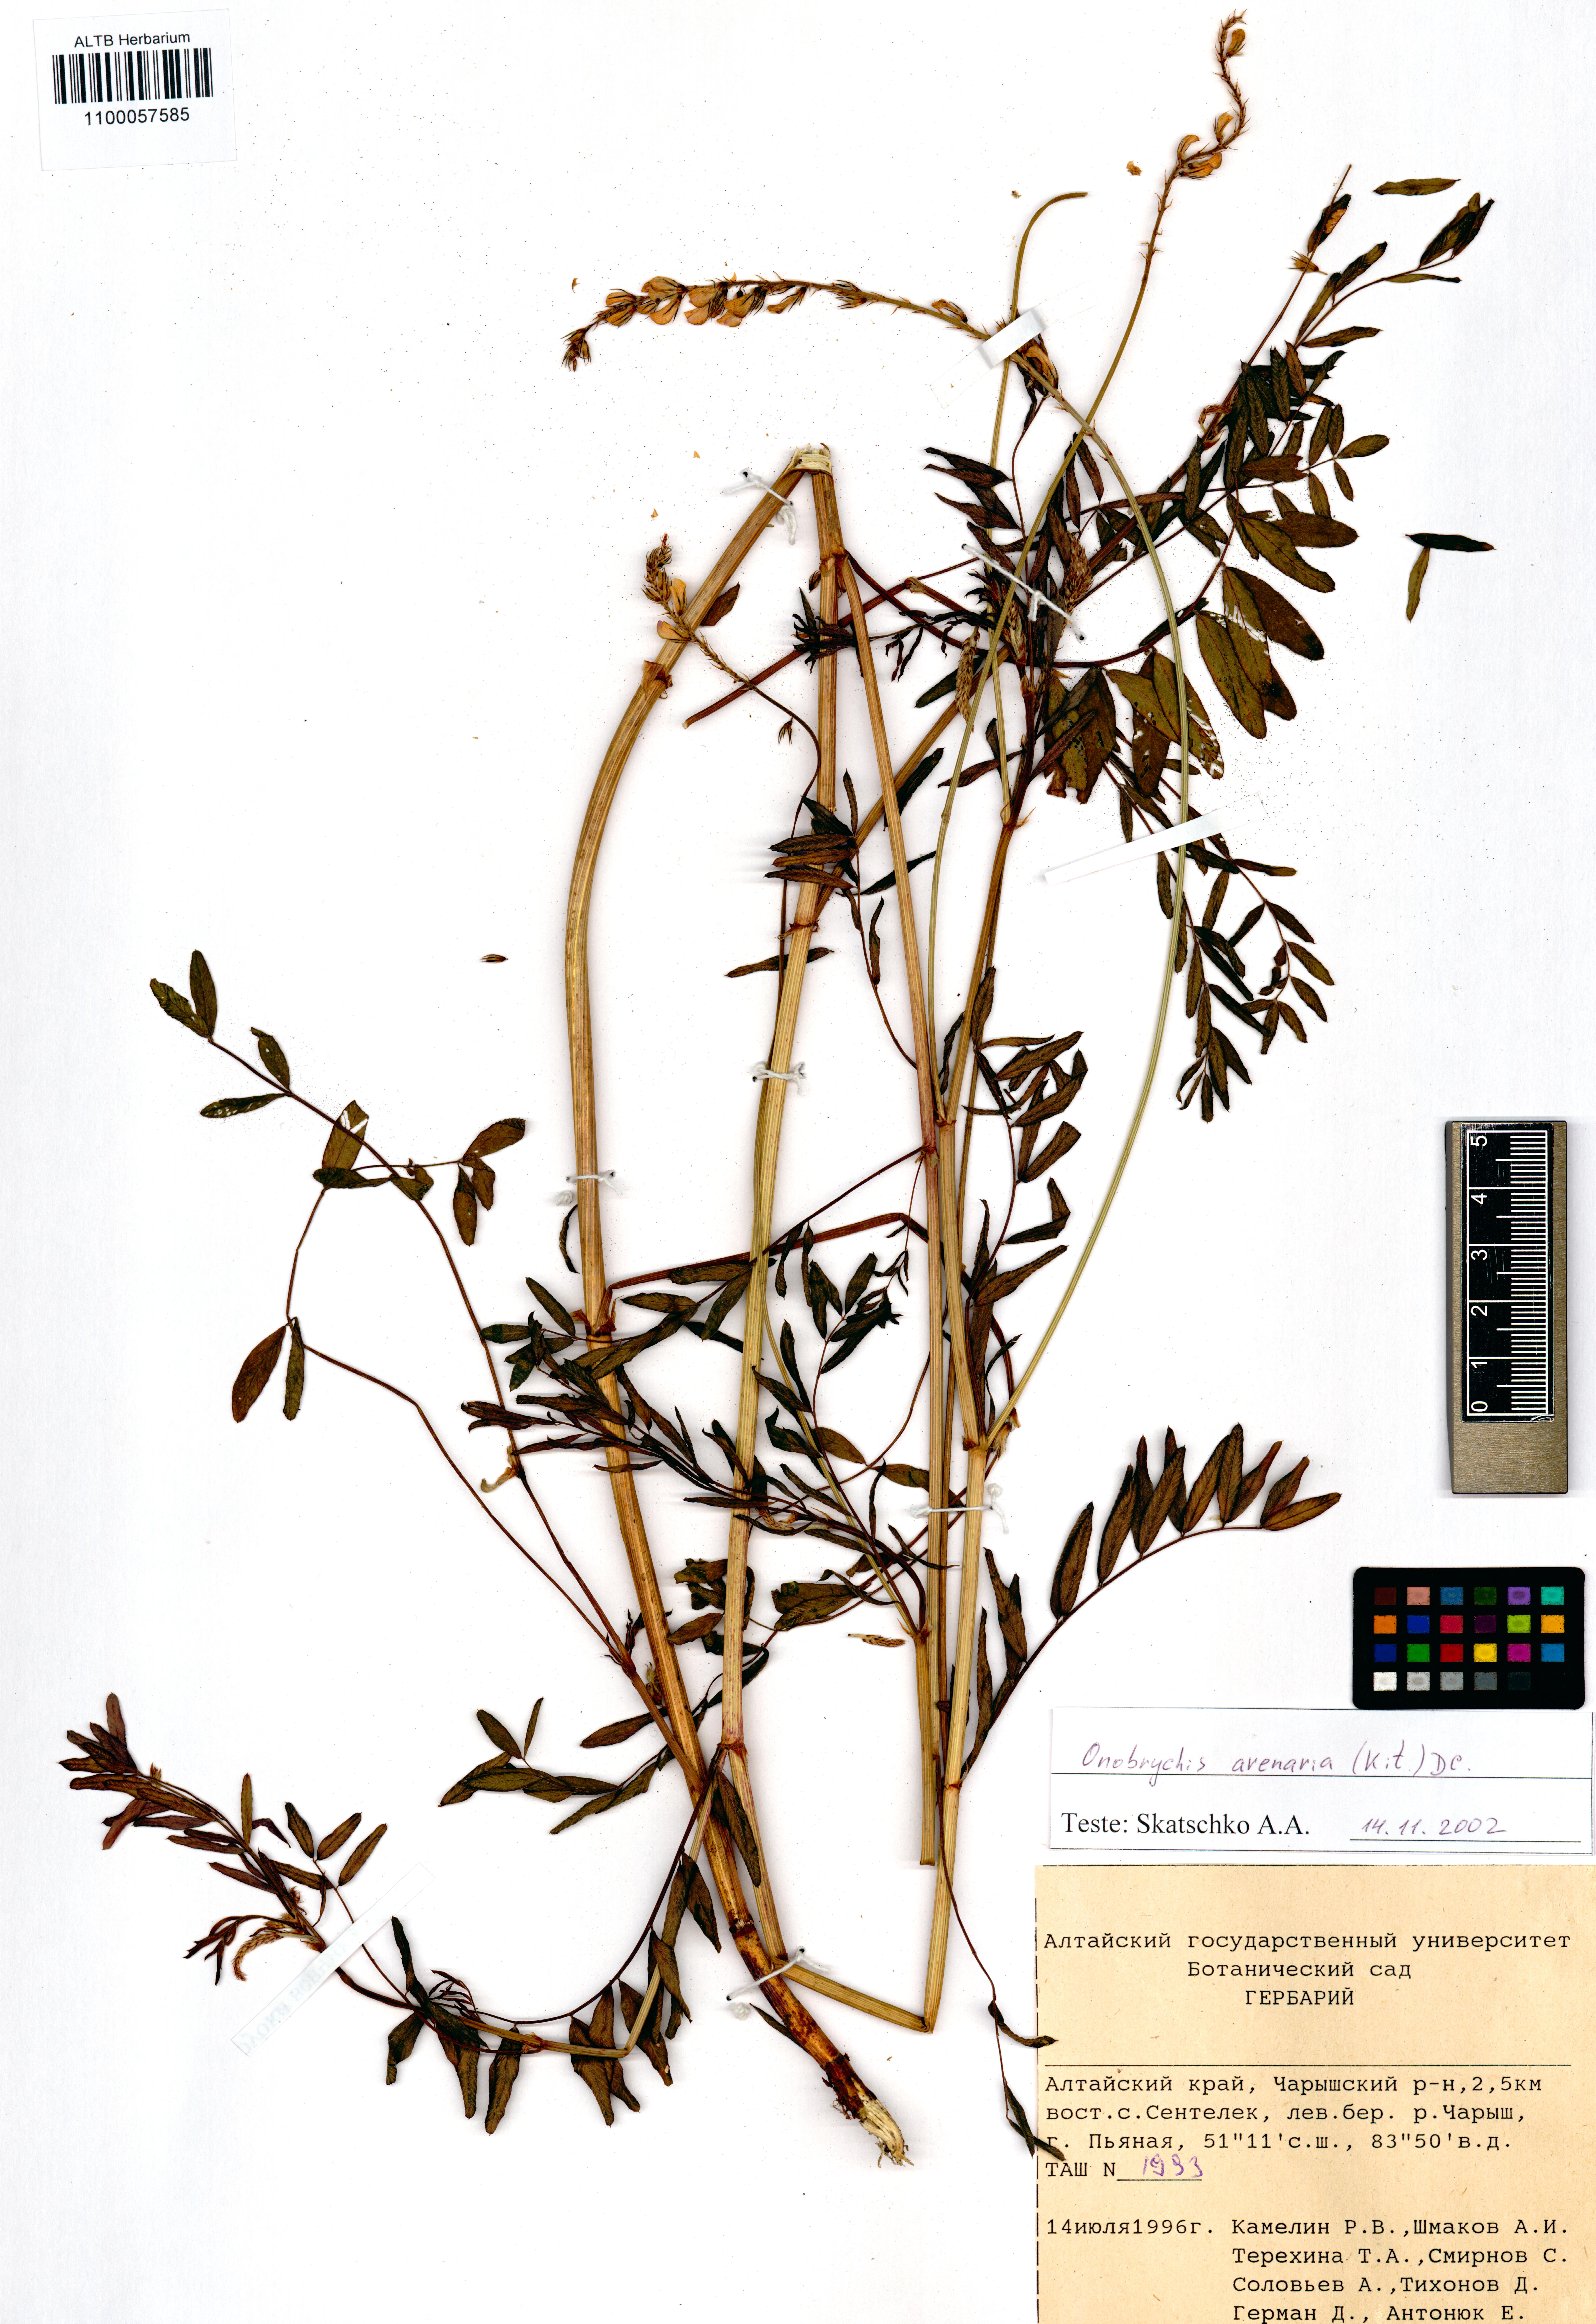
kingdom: Plantae
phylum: Tracheophyta
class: Magnoliopsida
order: Fabales
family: Fabaceae
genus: Onobrychis
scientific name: Onobrychis arenaria
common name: Sand esparcet
